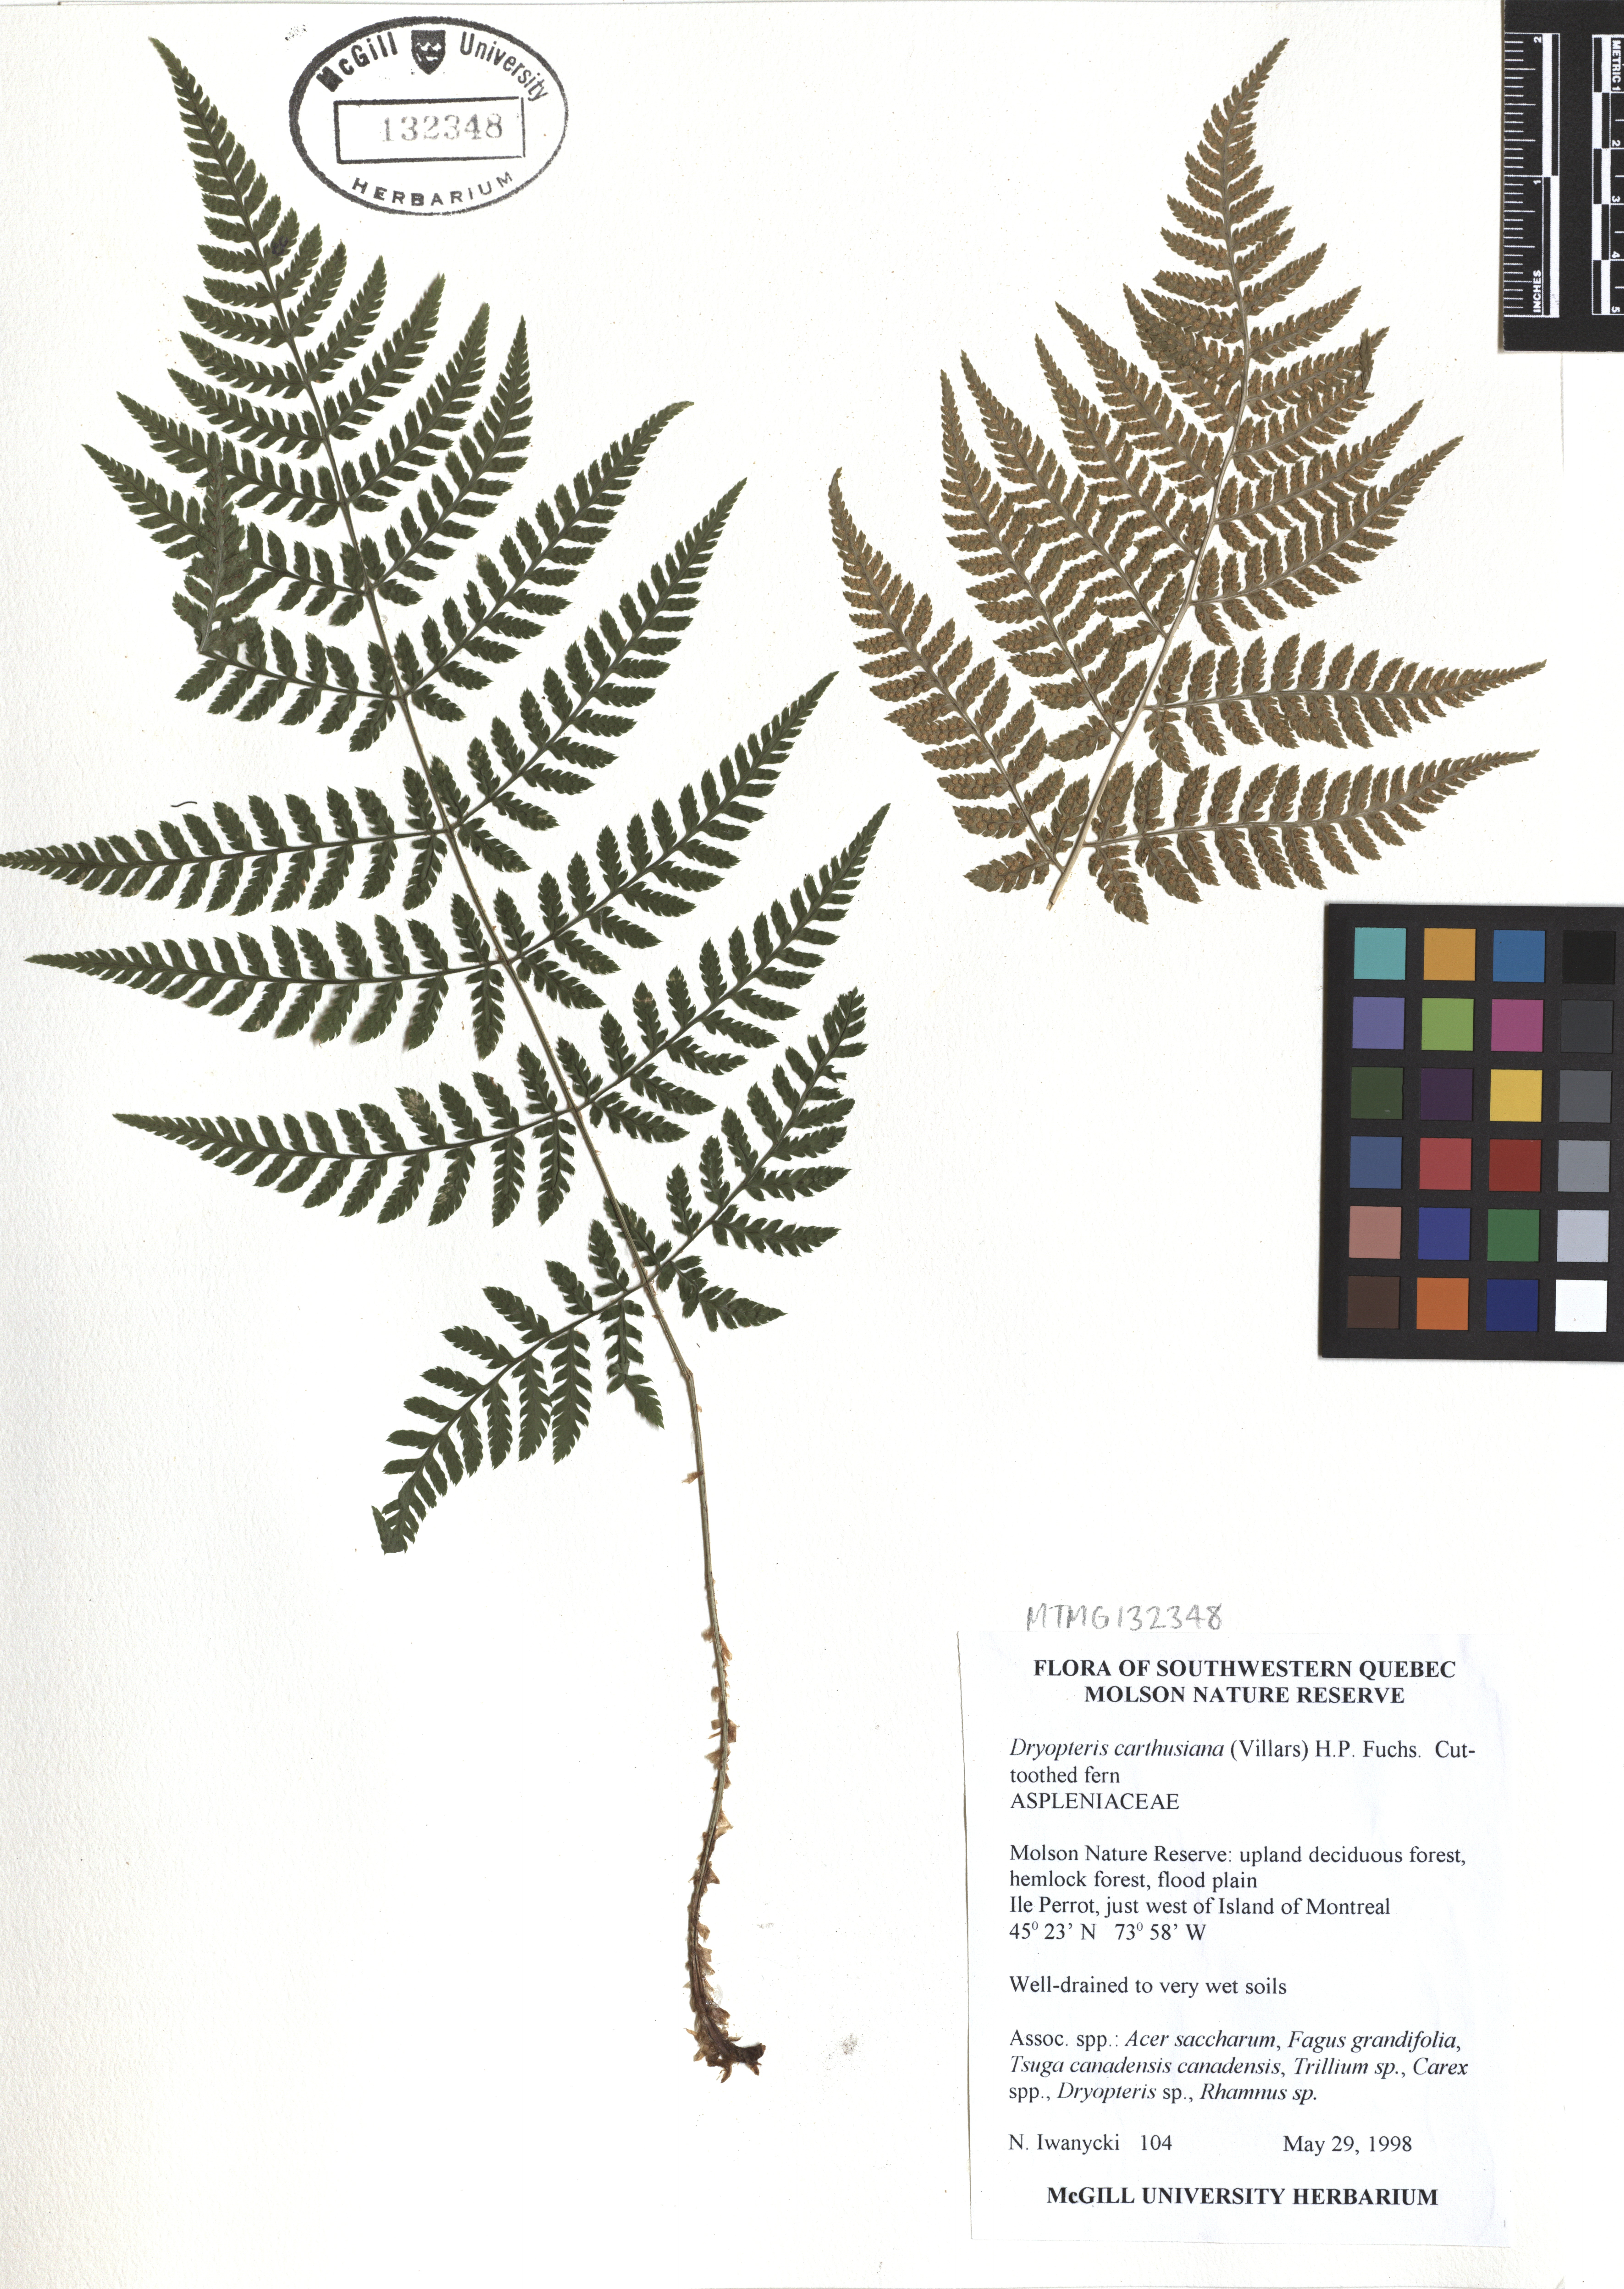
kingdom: Plantae
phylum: Tracheophyta
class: Polypodiopsida
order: Polypodiales
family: Dryopteridaceae
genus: Dryopteris
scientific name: Dryopteris carthusiana
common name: Narrow buckler-fern
